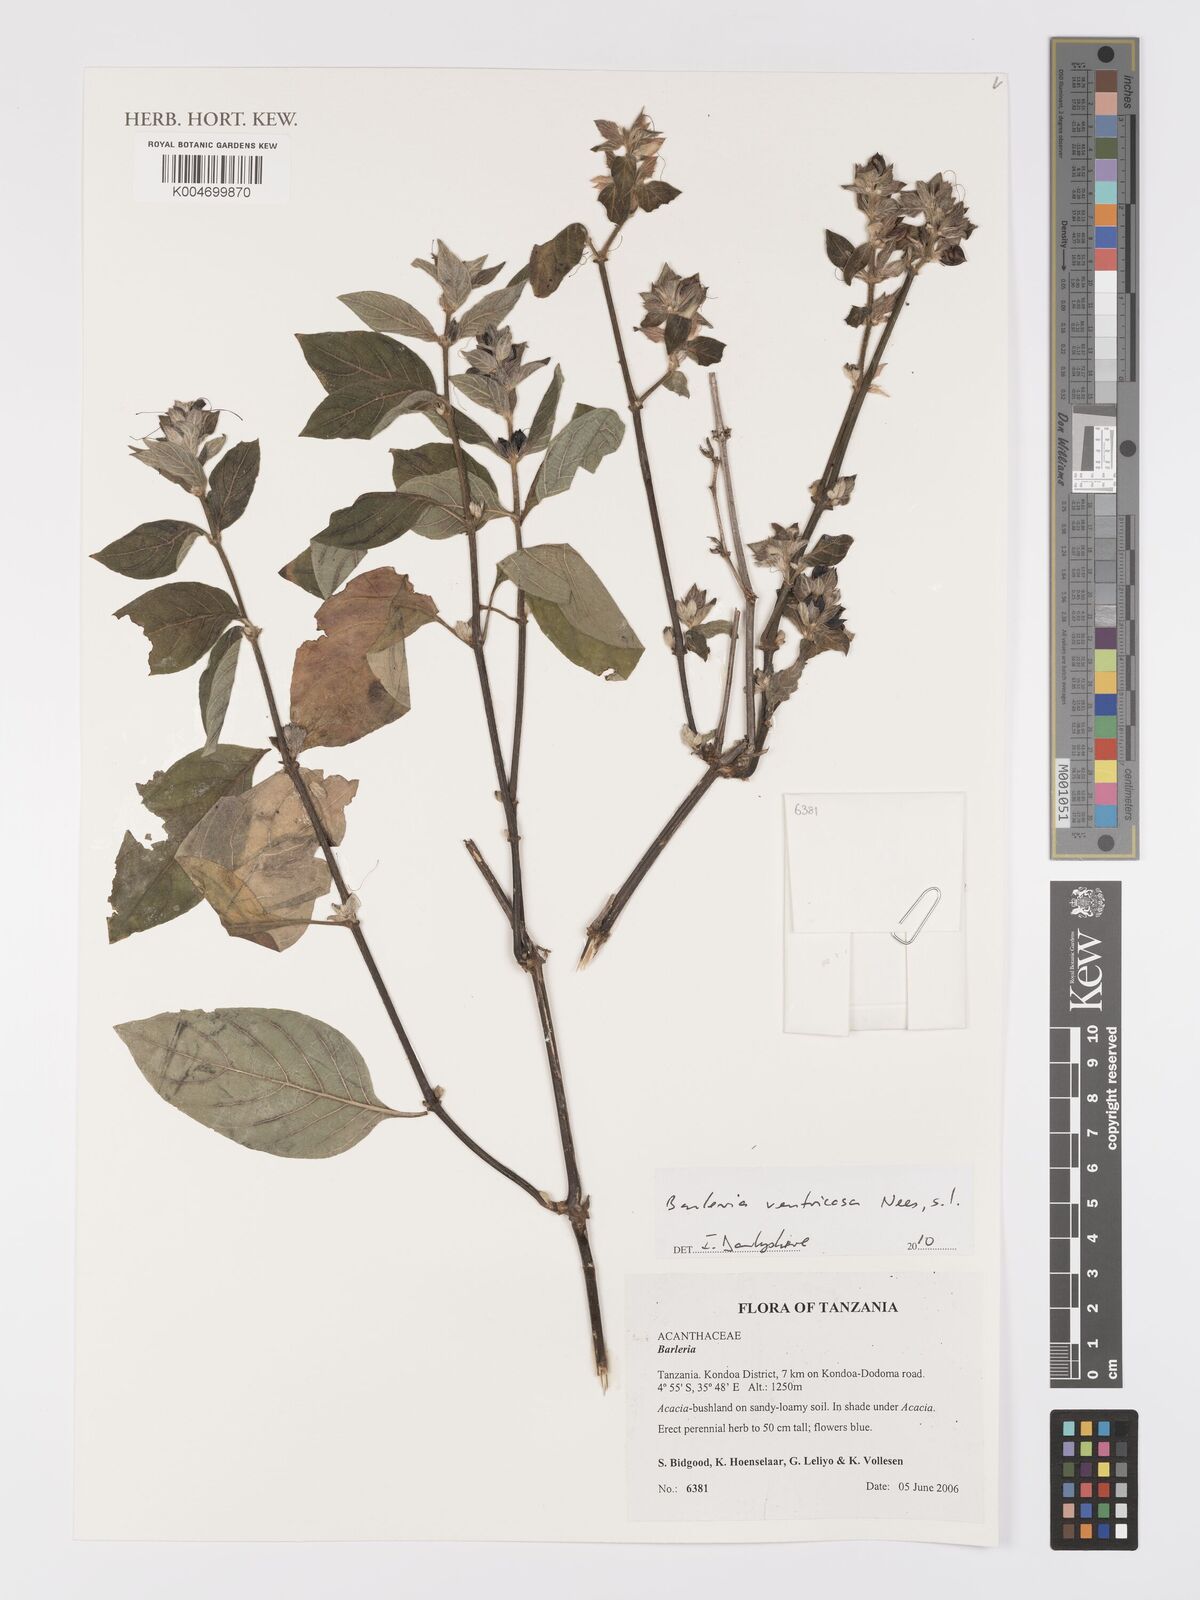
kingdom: Plantae
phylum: Tracheophyta
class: Magnoliopsida
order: Lamiales
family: Acanthaceae
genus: Barleria
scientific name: Barleria ventricosa
